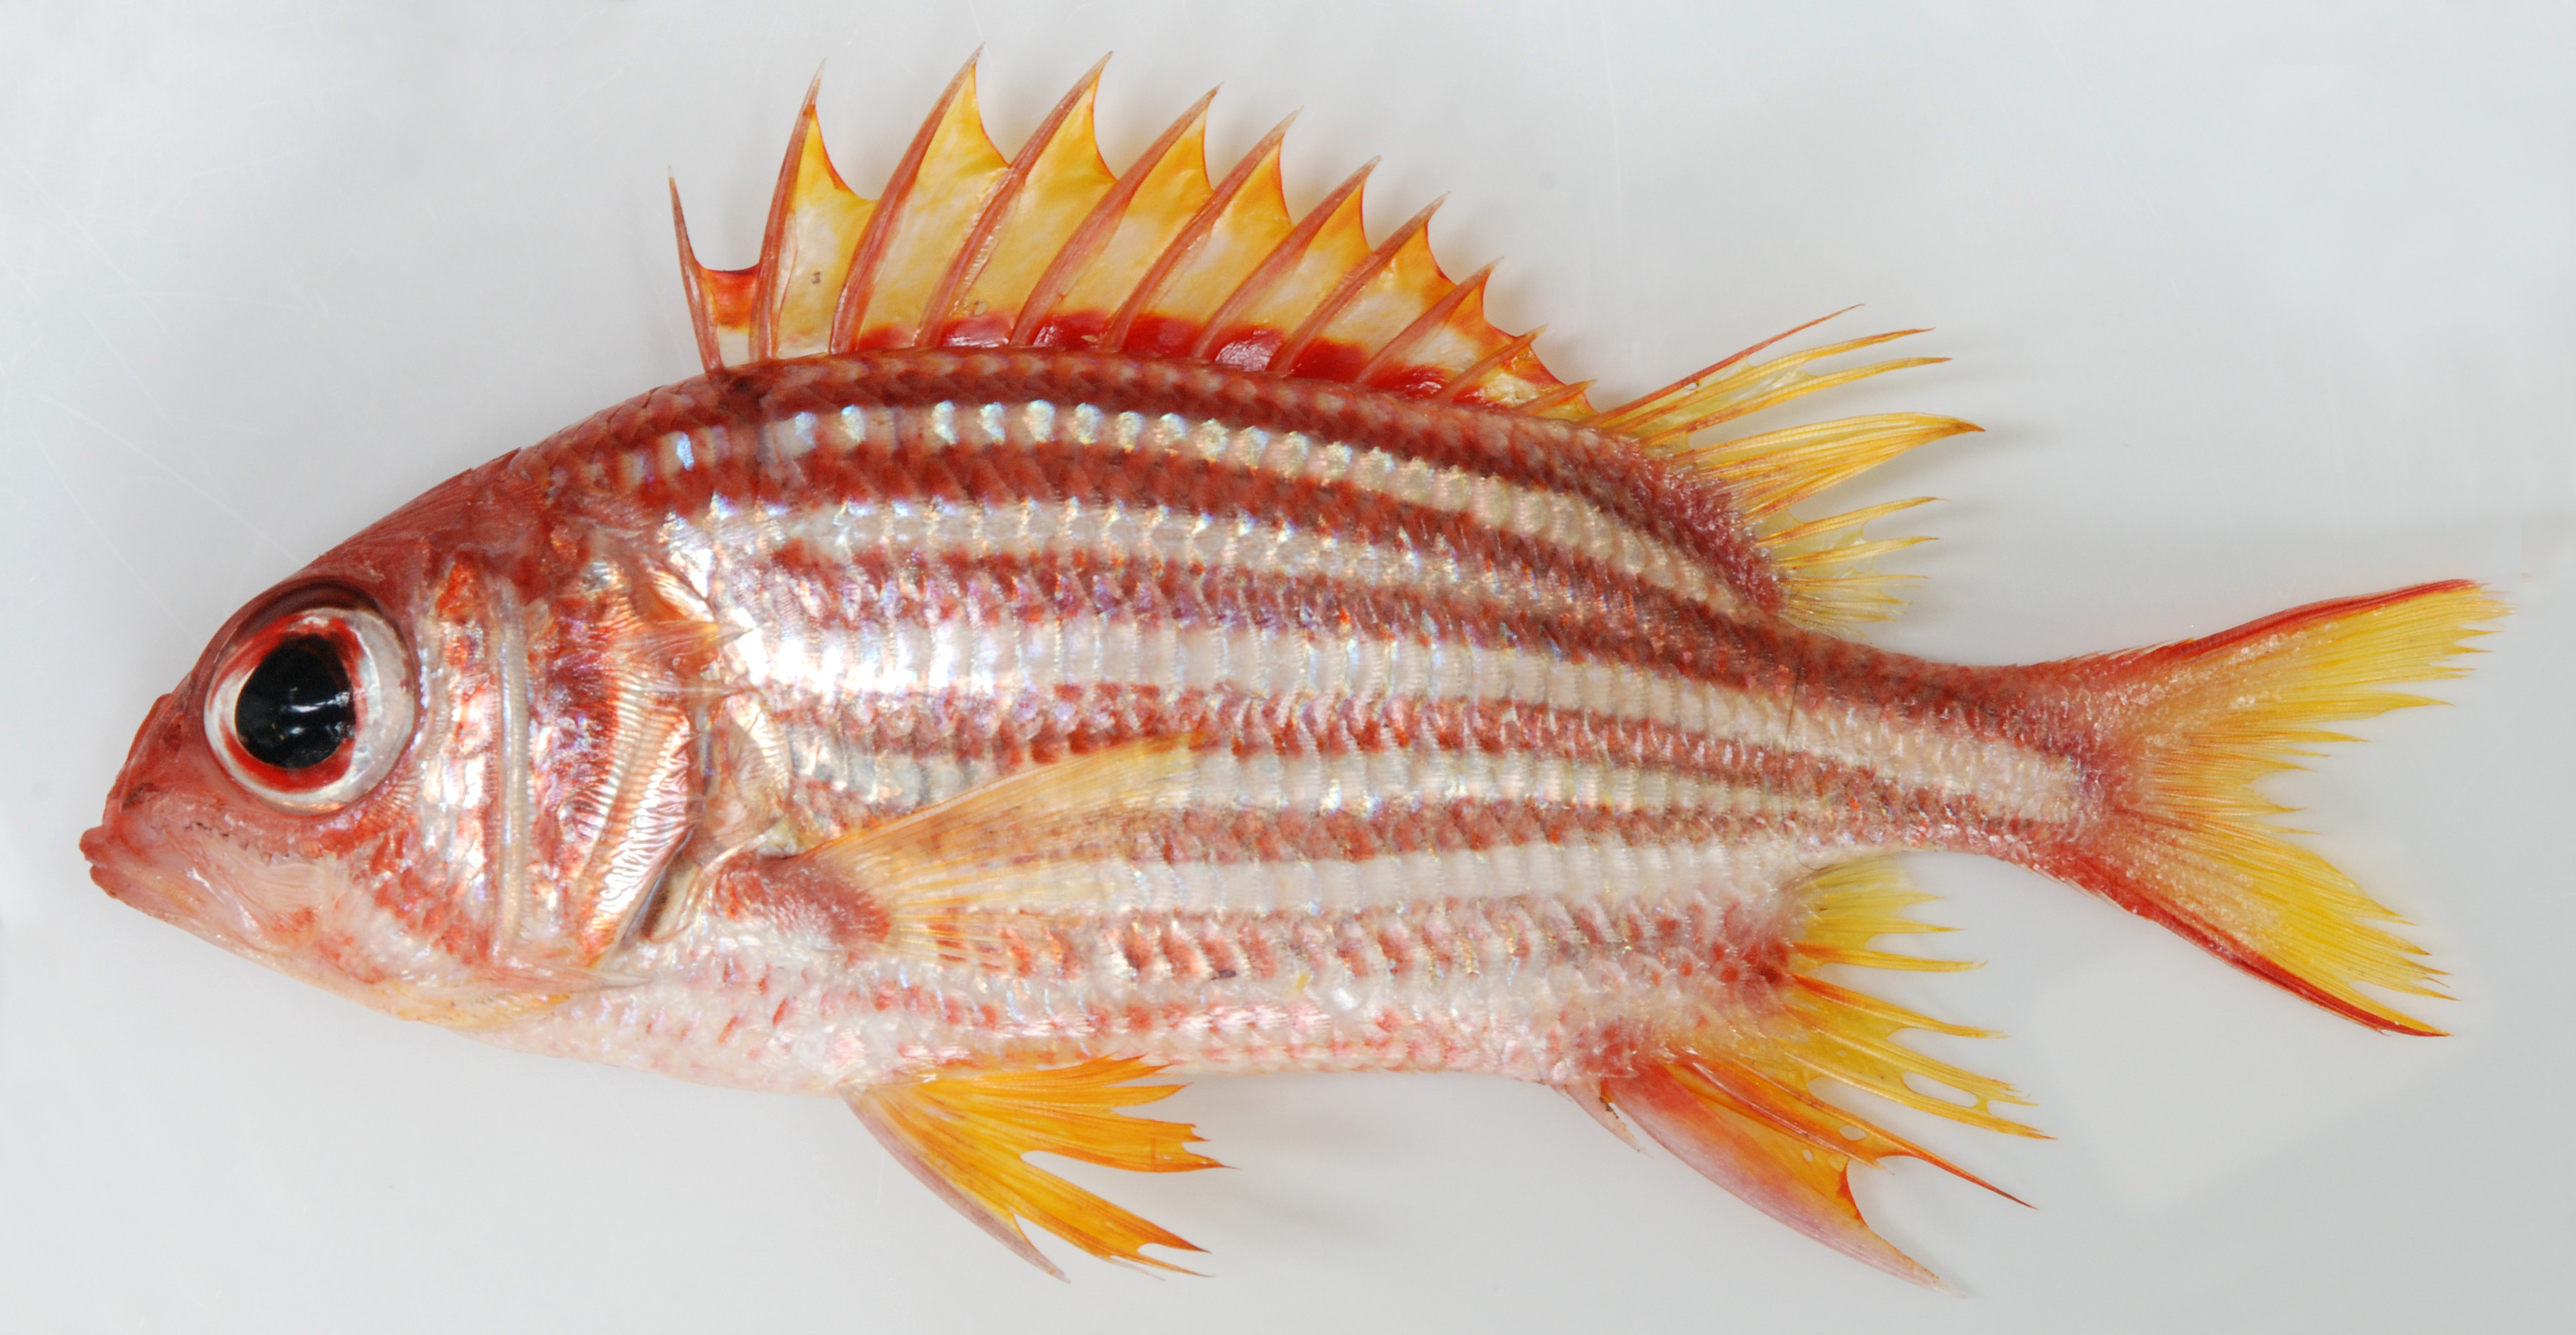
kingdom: Animalia
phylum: Chordata
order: Beryciformes
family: Holocentridae
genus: Sargocentron
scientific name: Sargocentron seychellense
